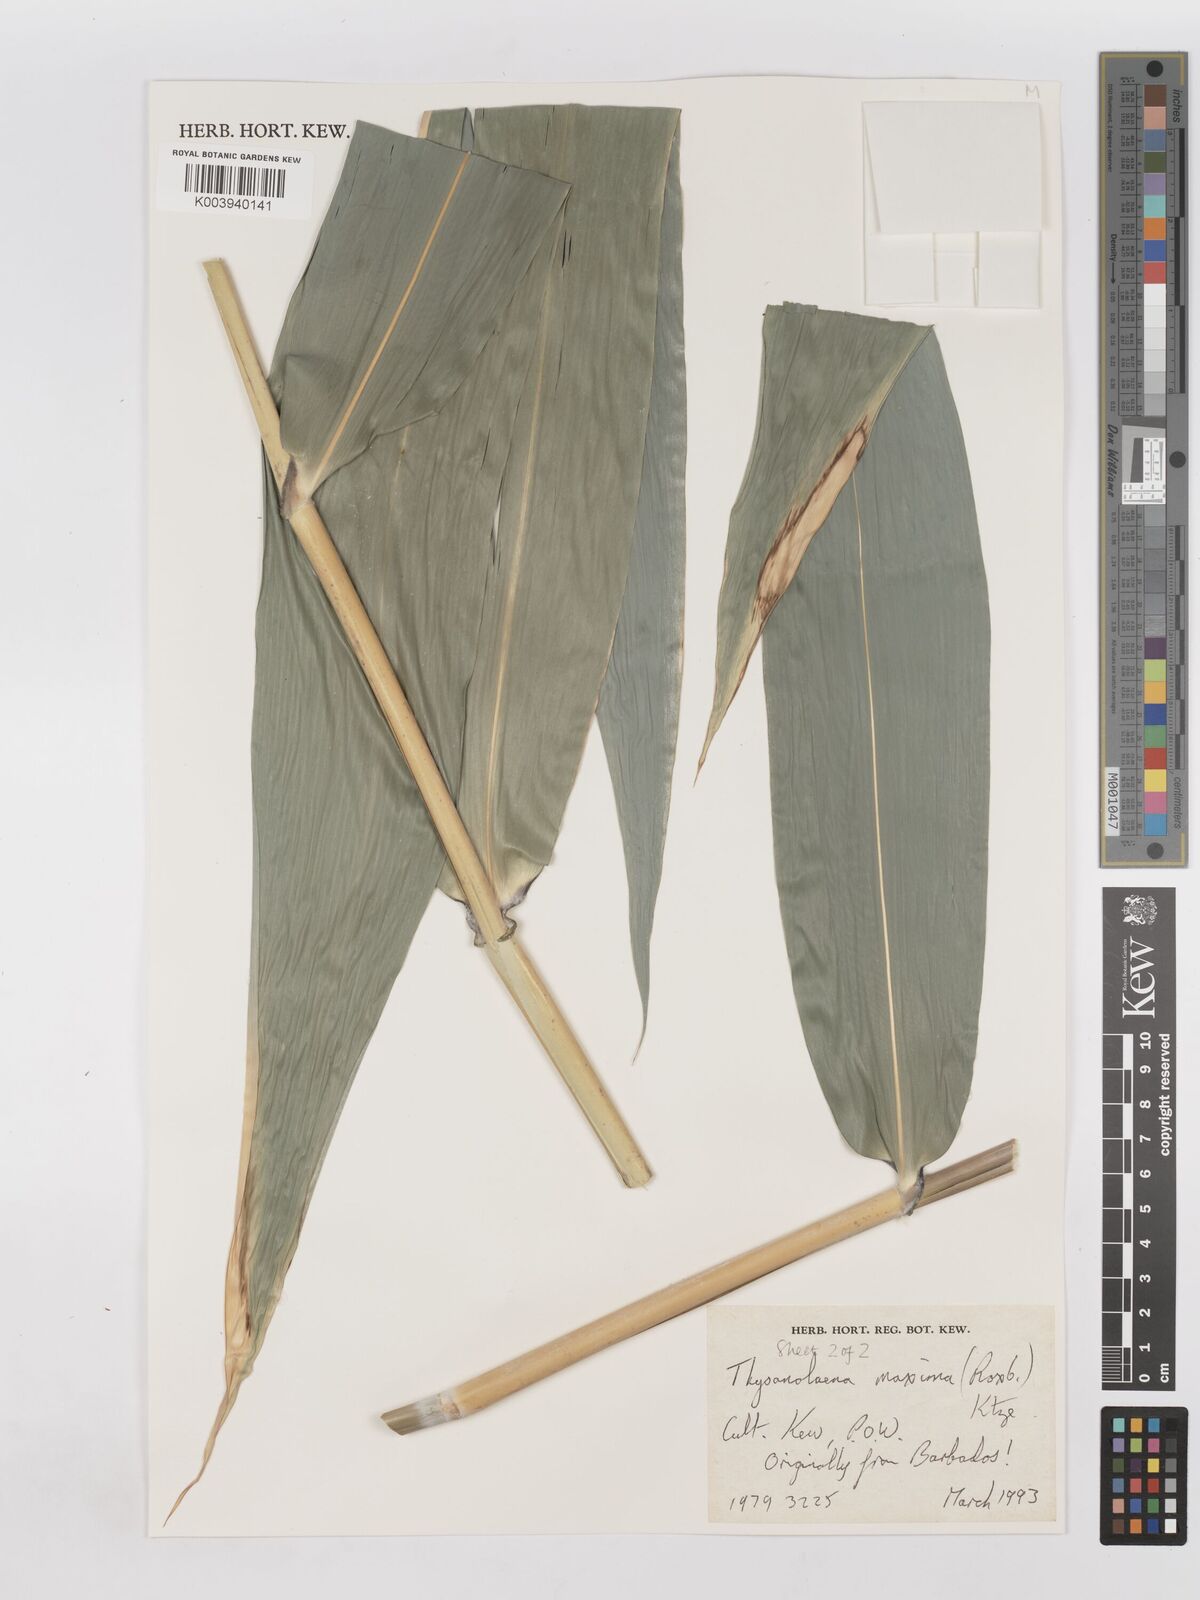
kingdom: Plantae
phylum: Tracheophyta
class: Liliopsida
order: Poales
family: Poaceae
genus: Thysanolaena
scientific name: Thysanolaena latifolia
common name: Tiger grass
